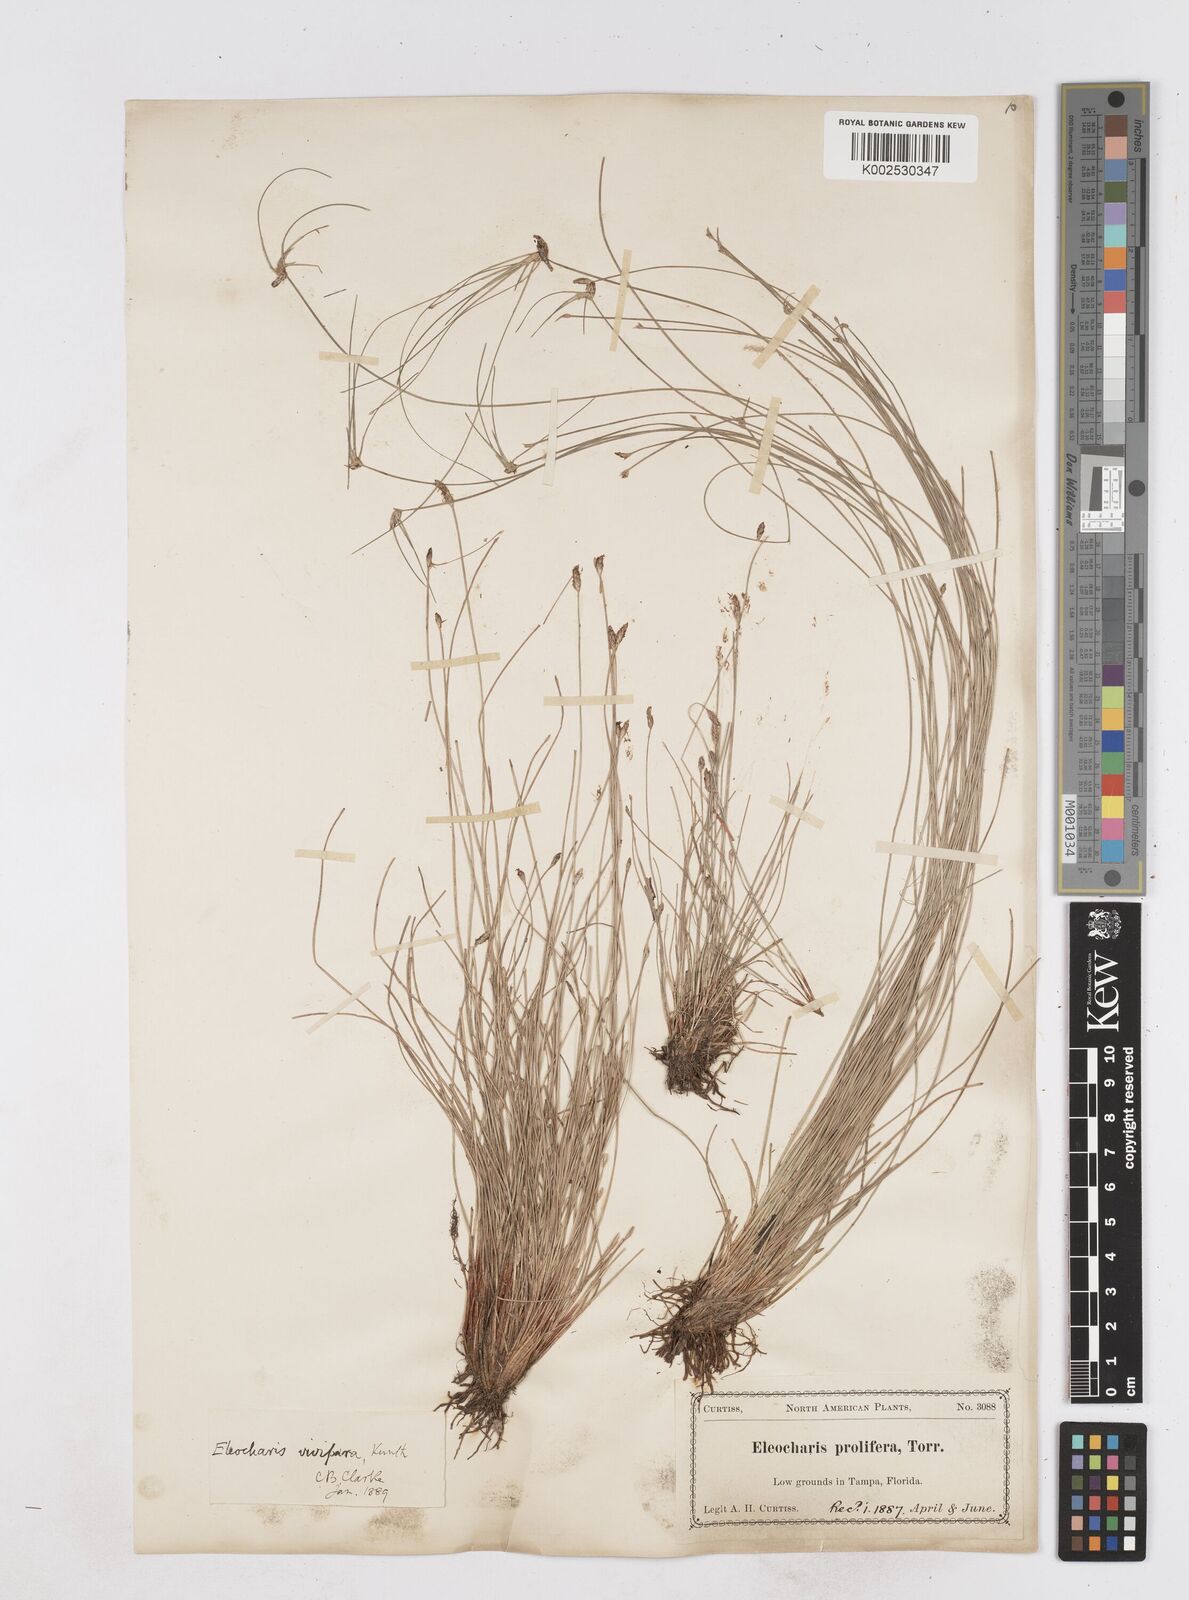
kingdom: Plantae
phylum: Tracheophyta
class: Liliopsida
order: Poales
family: Cyperaceae
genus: Eleocharis
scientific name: Eleocharis
